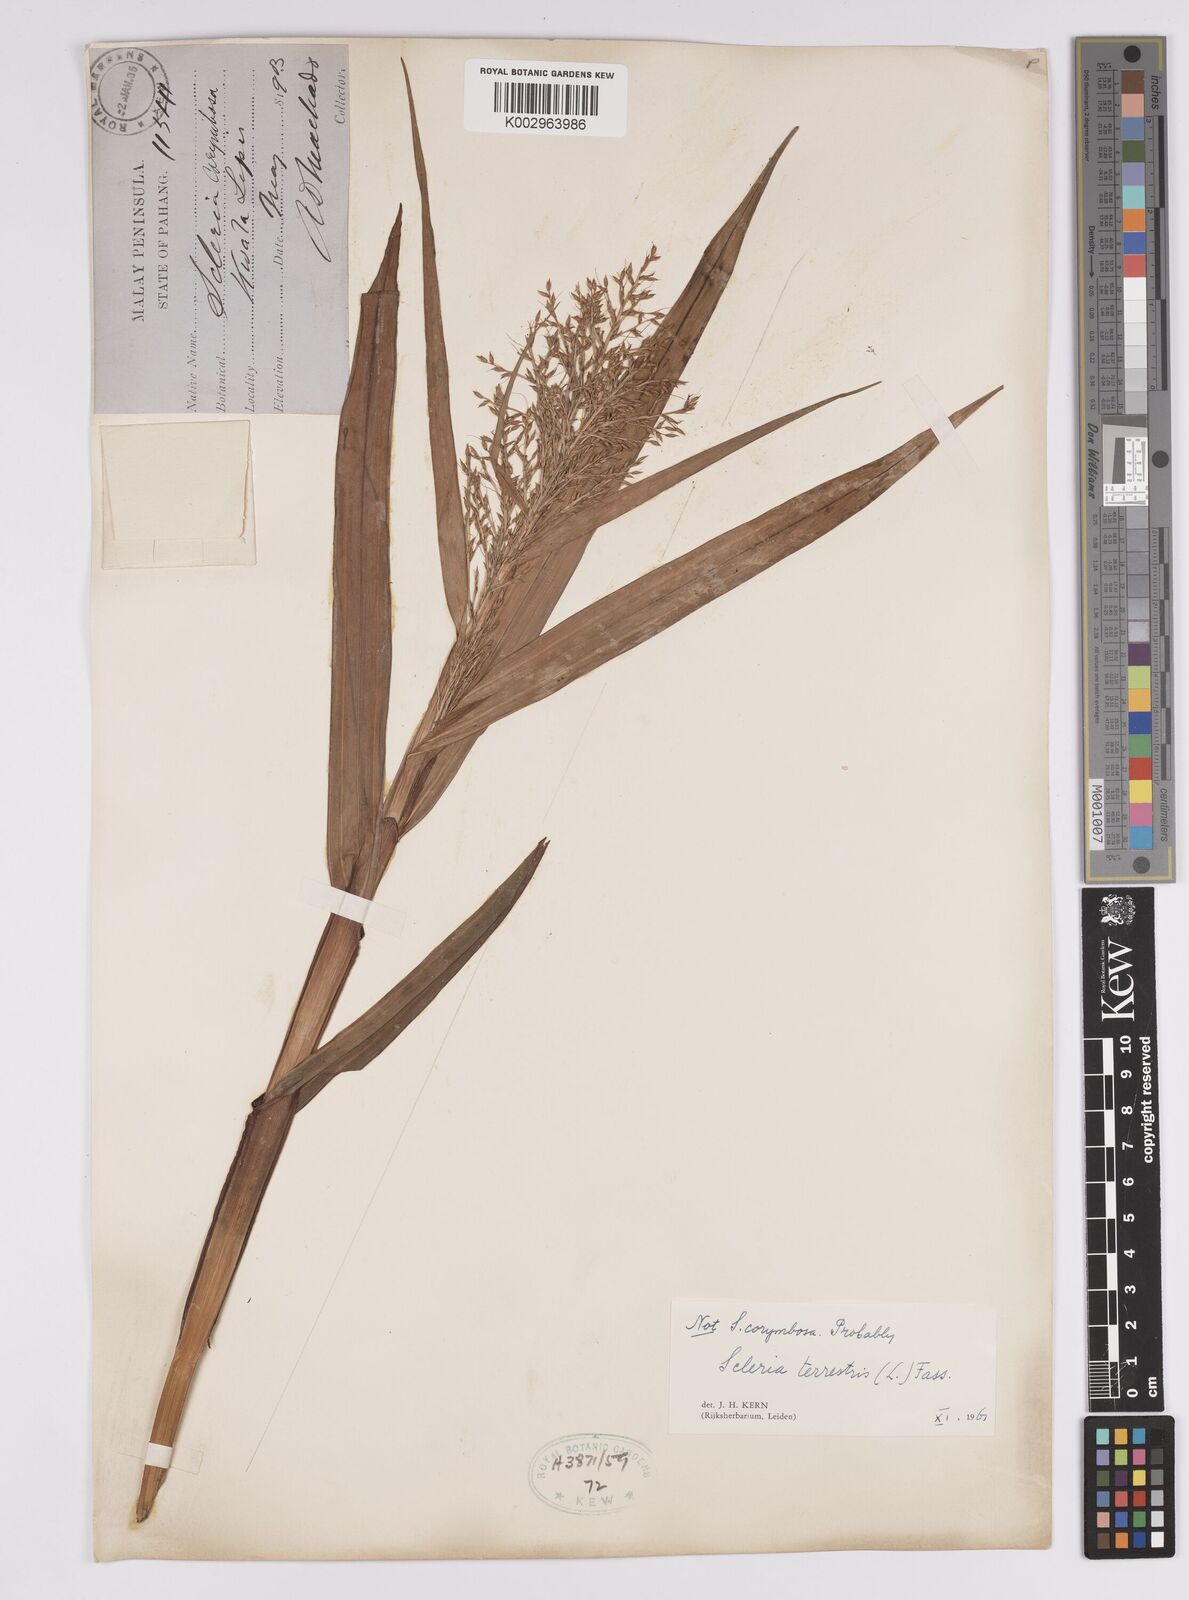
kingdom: Plantae
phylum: Tracheophyta
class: Liliopsida
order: Poales
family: Cyperaceae
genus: Scleria
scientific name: Scleria terrestris
